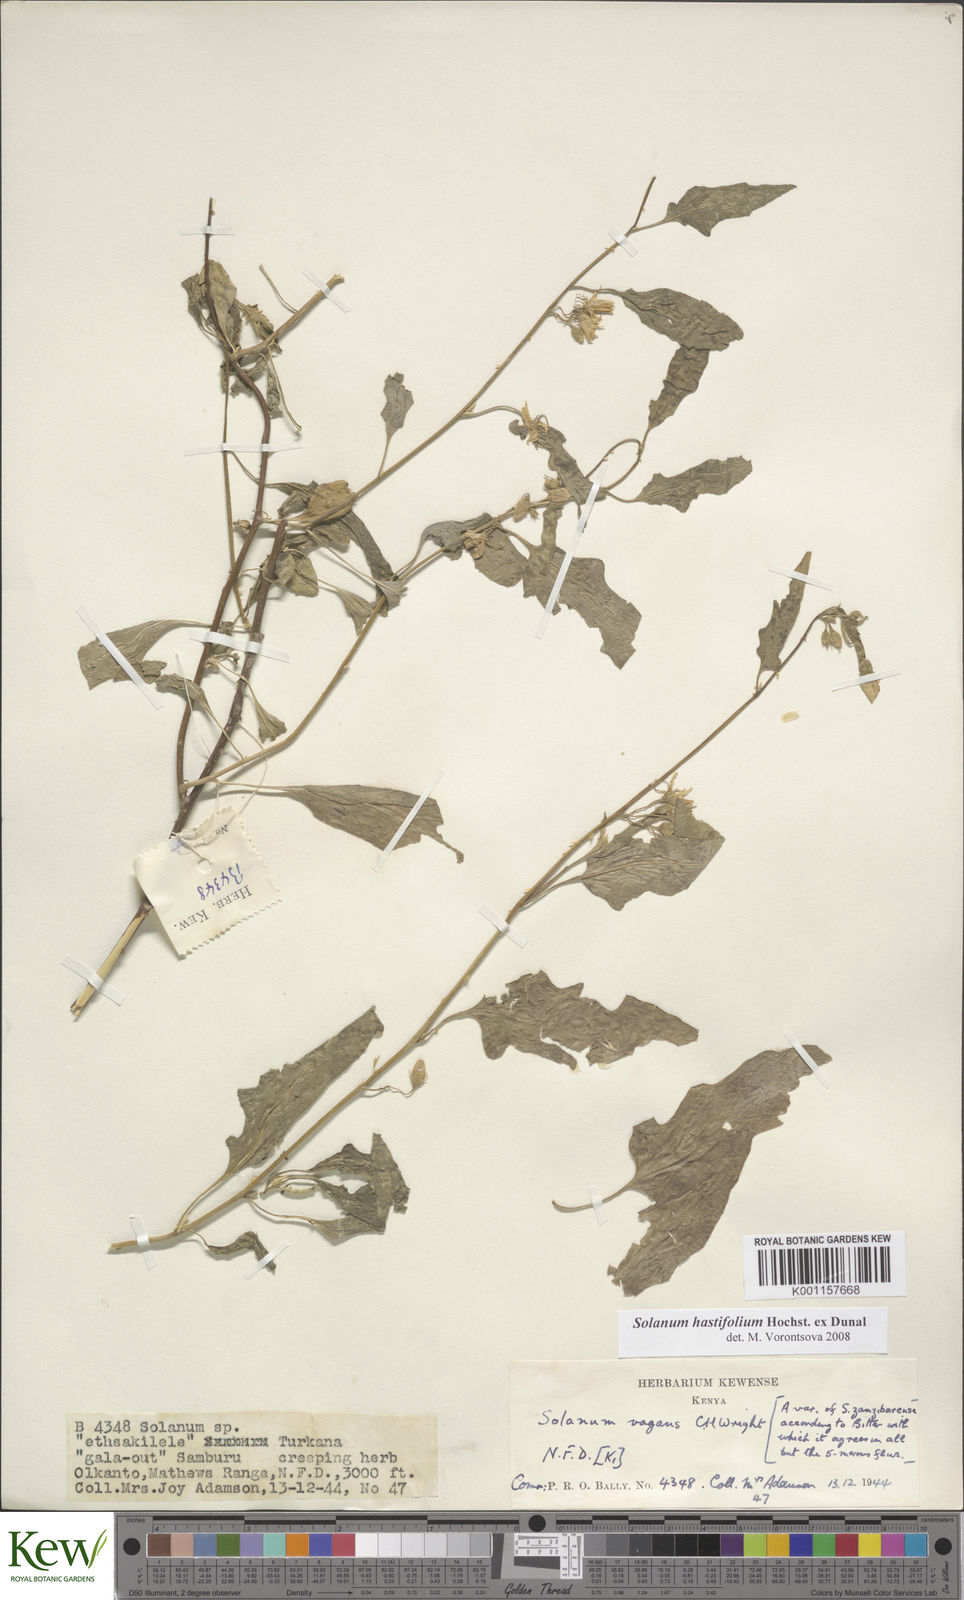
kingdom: Plantae
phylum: Tracheophyta
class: Magnoliopsida
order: Solanales
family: Solanaceae
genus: Solanum
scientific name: Solanum hastifolium
